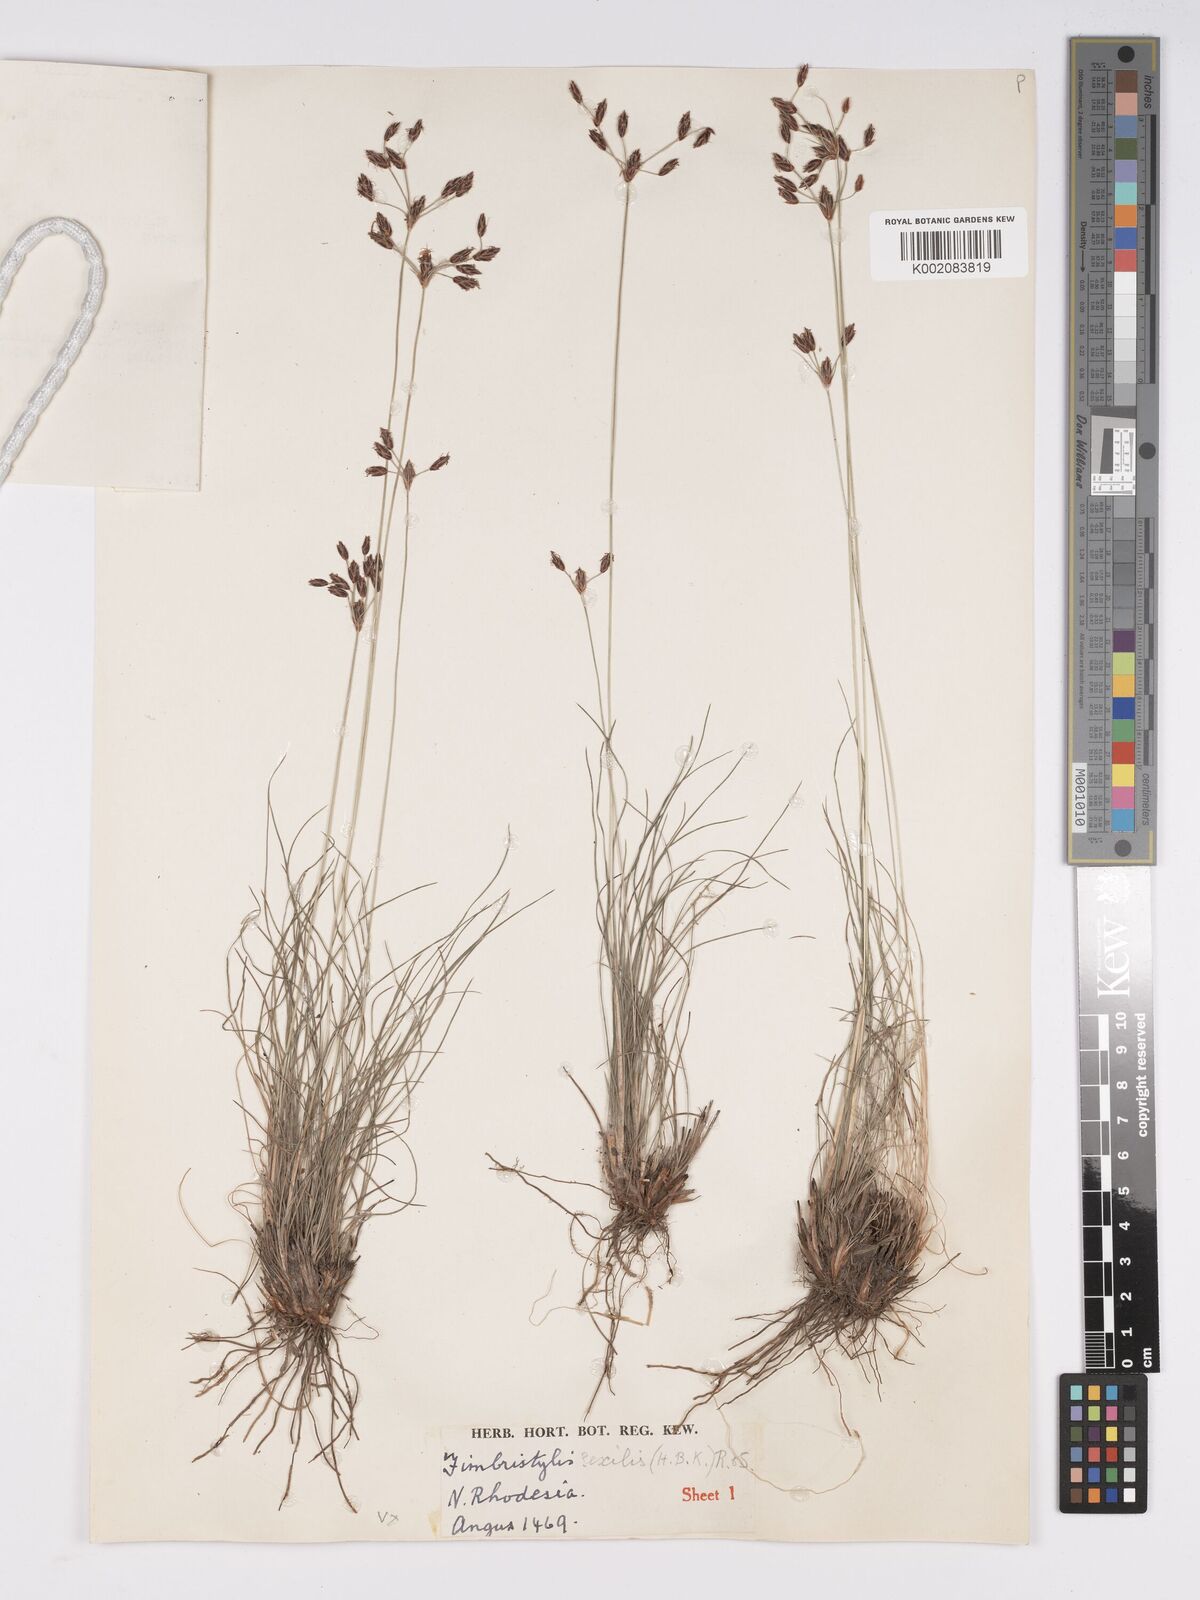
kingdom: Plantae
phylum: Tracheophyta
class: Liliopsida
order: Poales
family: Cyperaceae
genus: Bulbostylis
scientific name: Bulbostylis hispidula
